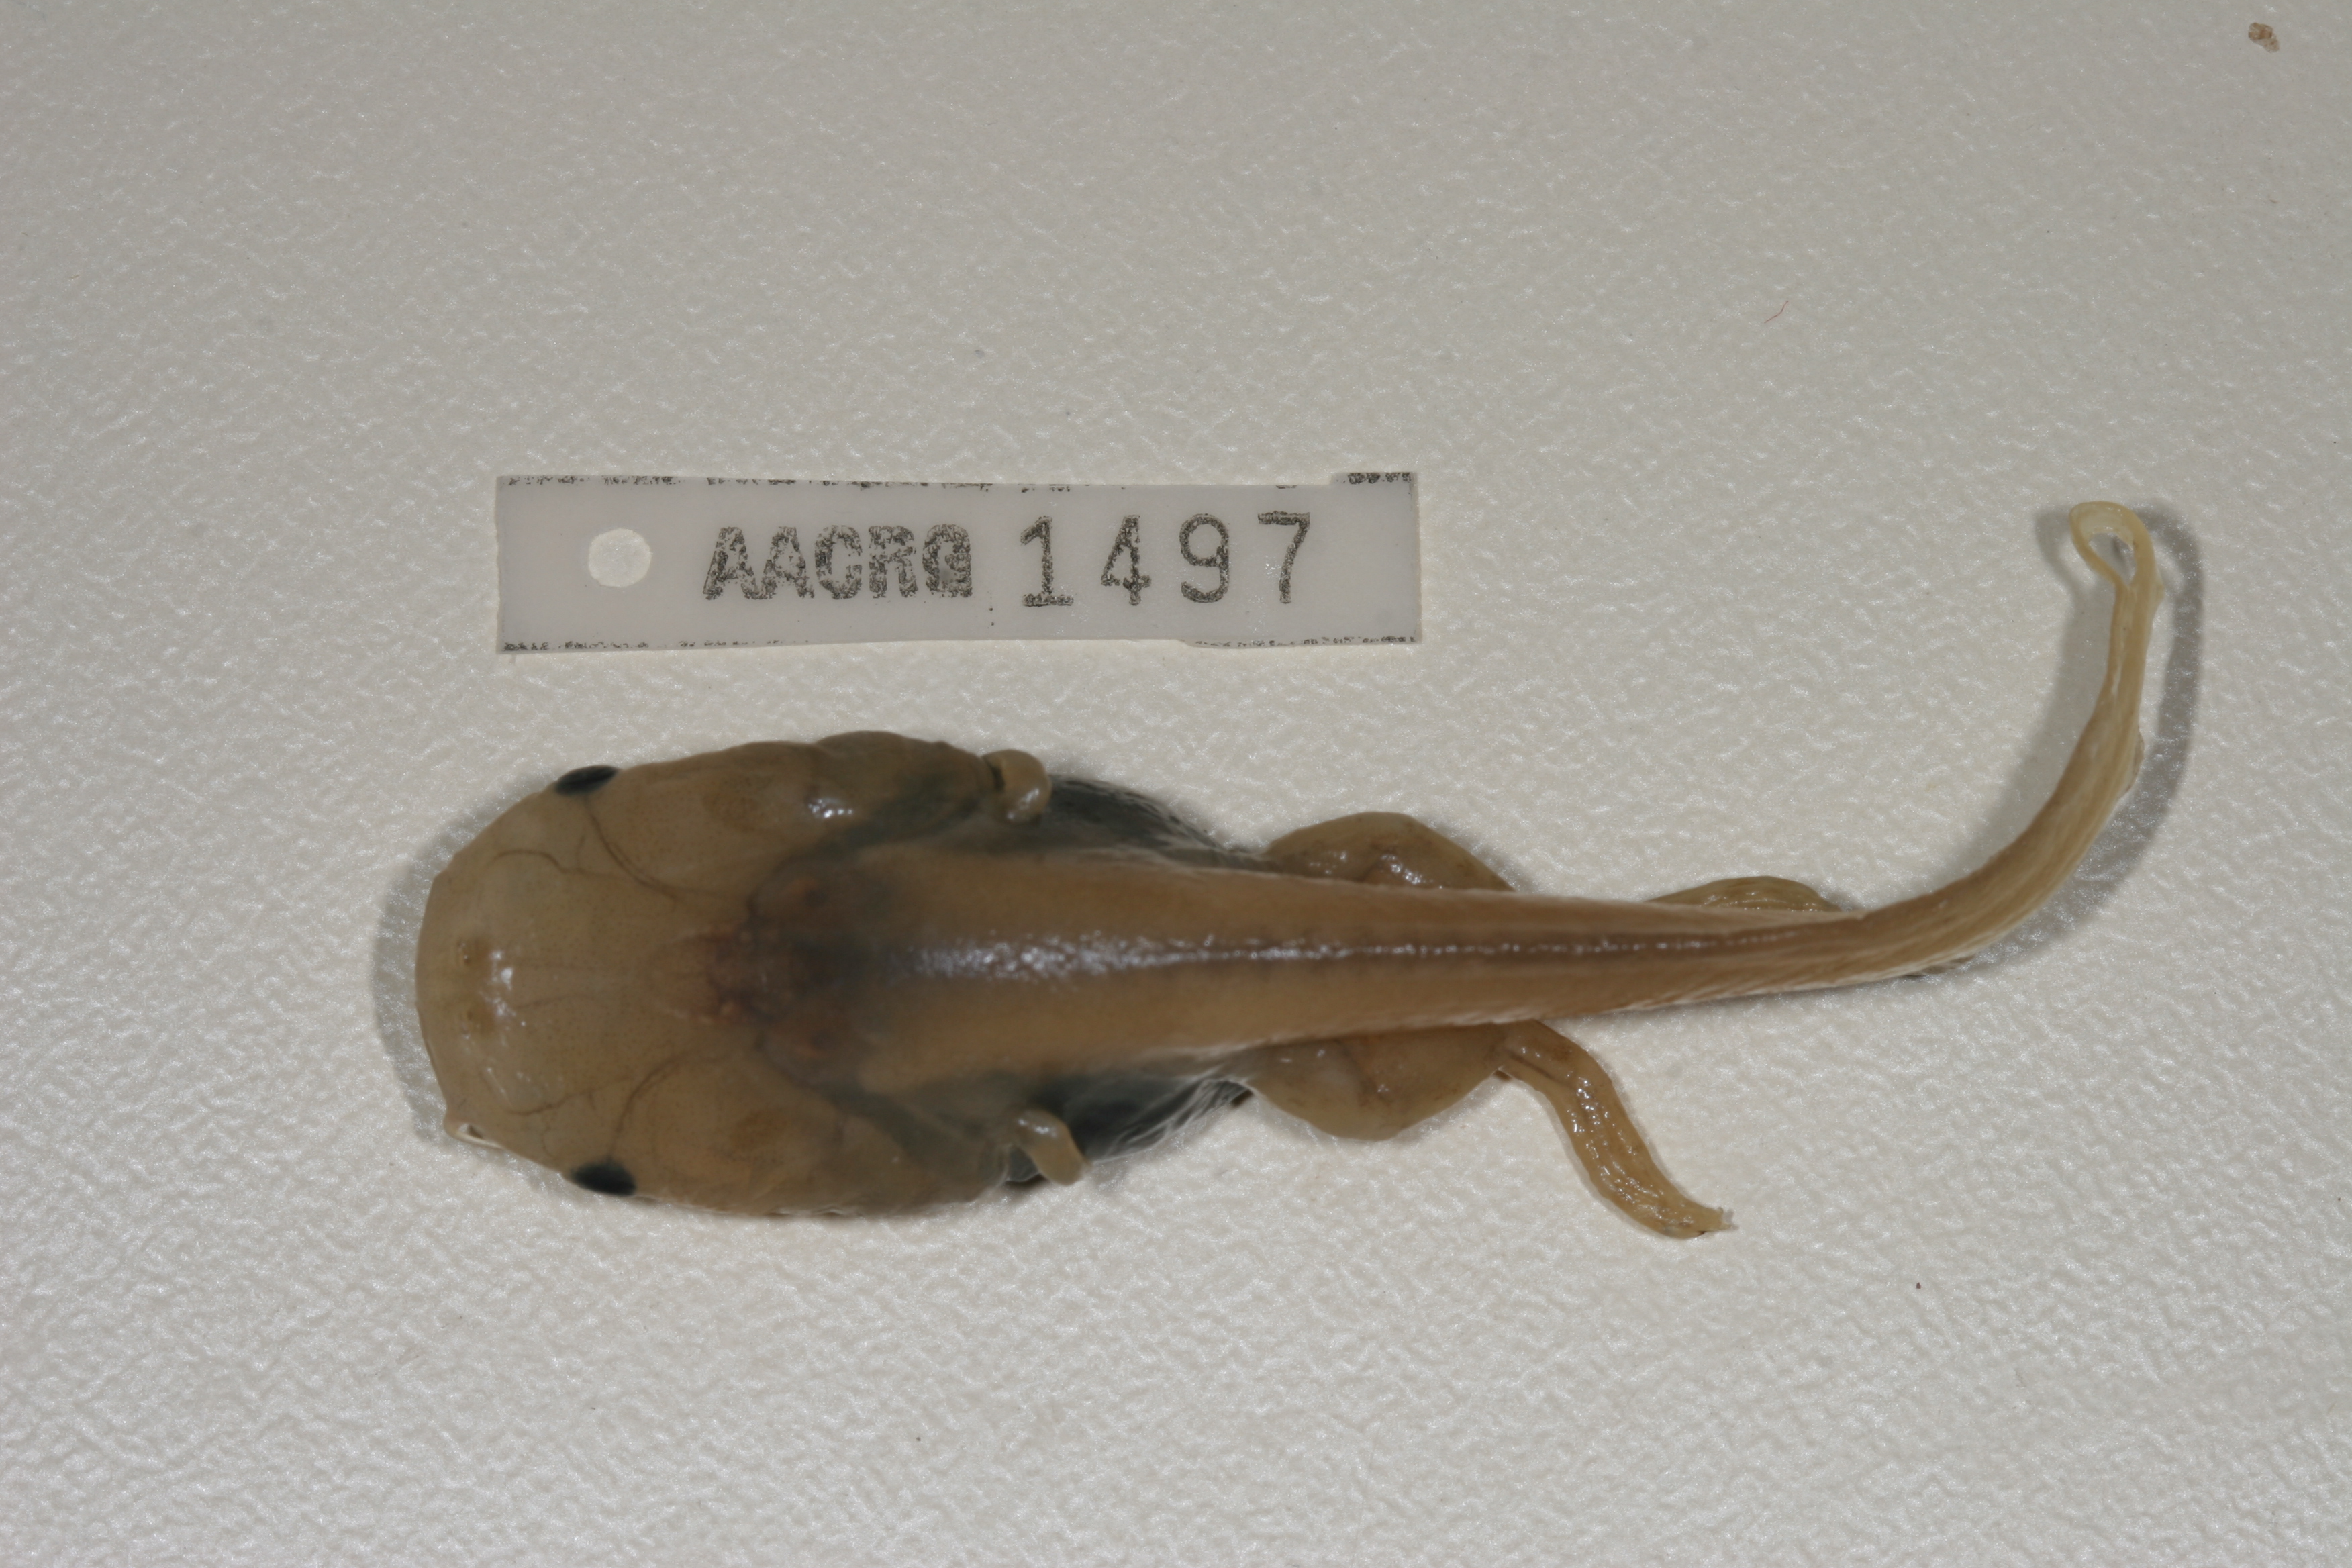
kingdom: Animalia
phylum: Chordata
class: Amphibia
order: Anura
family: Pipidae
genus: Xenopus
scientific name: Xenopus muelleri
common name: Muller's clawed frog
